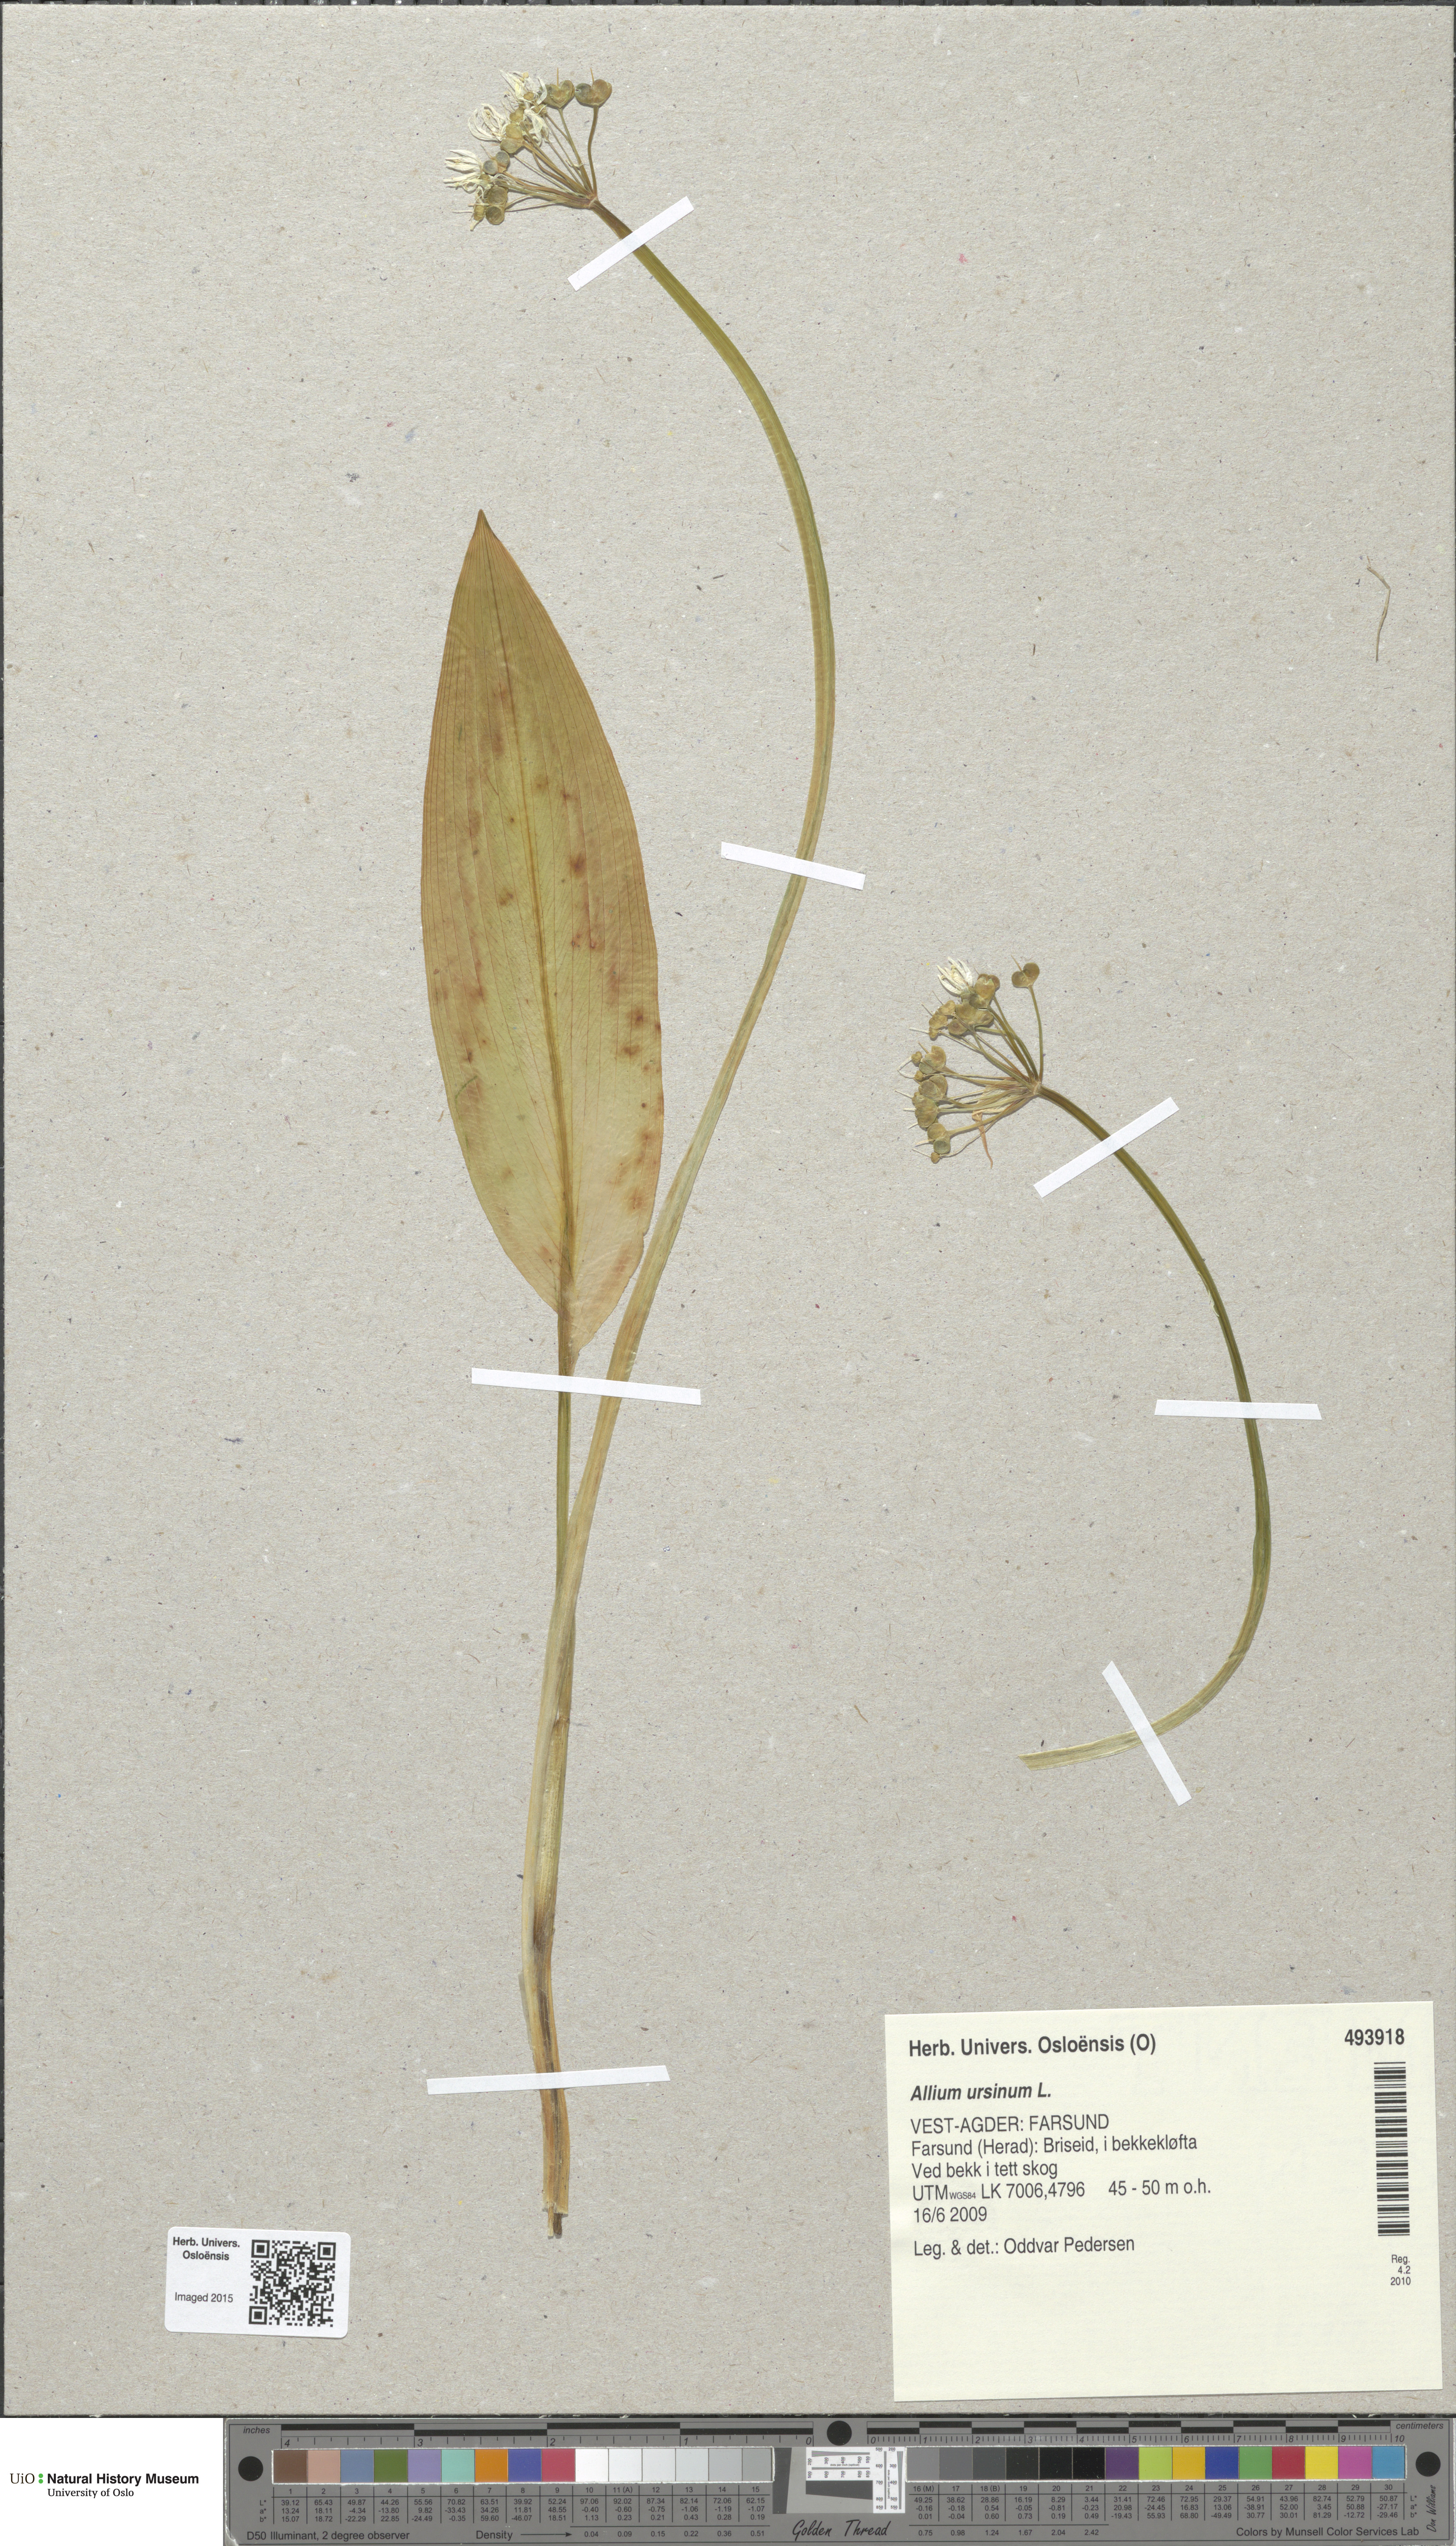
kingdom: Plantae
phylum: Tracheophyta
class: Liliopsida
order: Asparagales
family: Amaryllidaceae
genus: Allium
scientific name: Allium ursinum
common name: Ramsons
